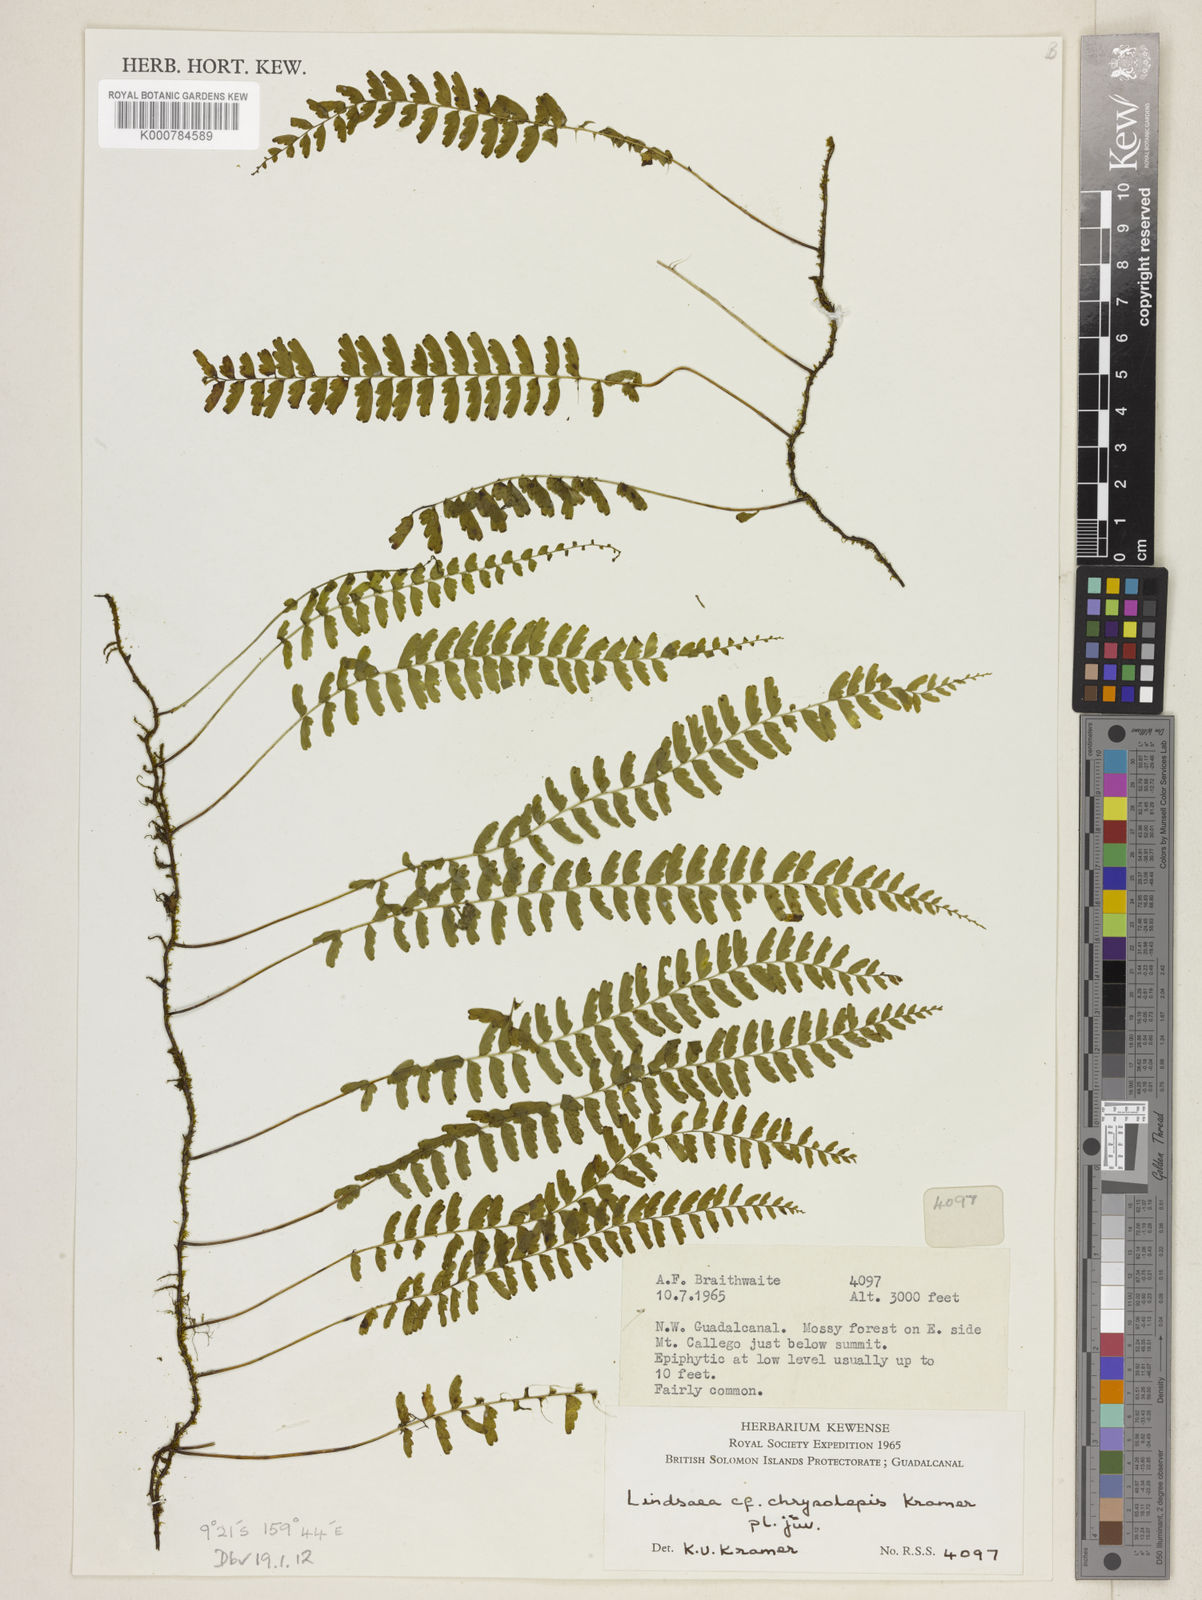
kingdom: Plantae
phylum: Tracheophyta
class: Polypodiopsida
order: Polypodiales
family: Lindsaeaceae
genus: Lindsaea
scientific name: Lindsaea chrysolepis
